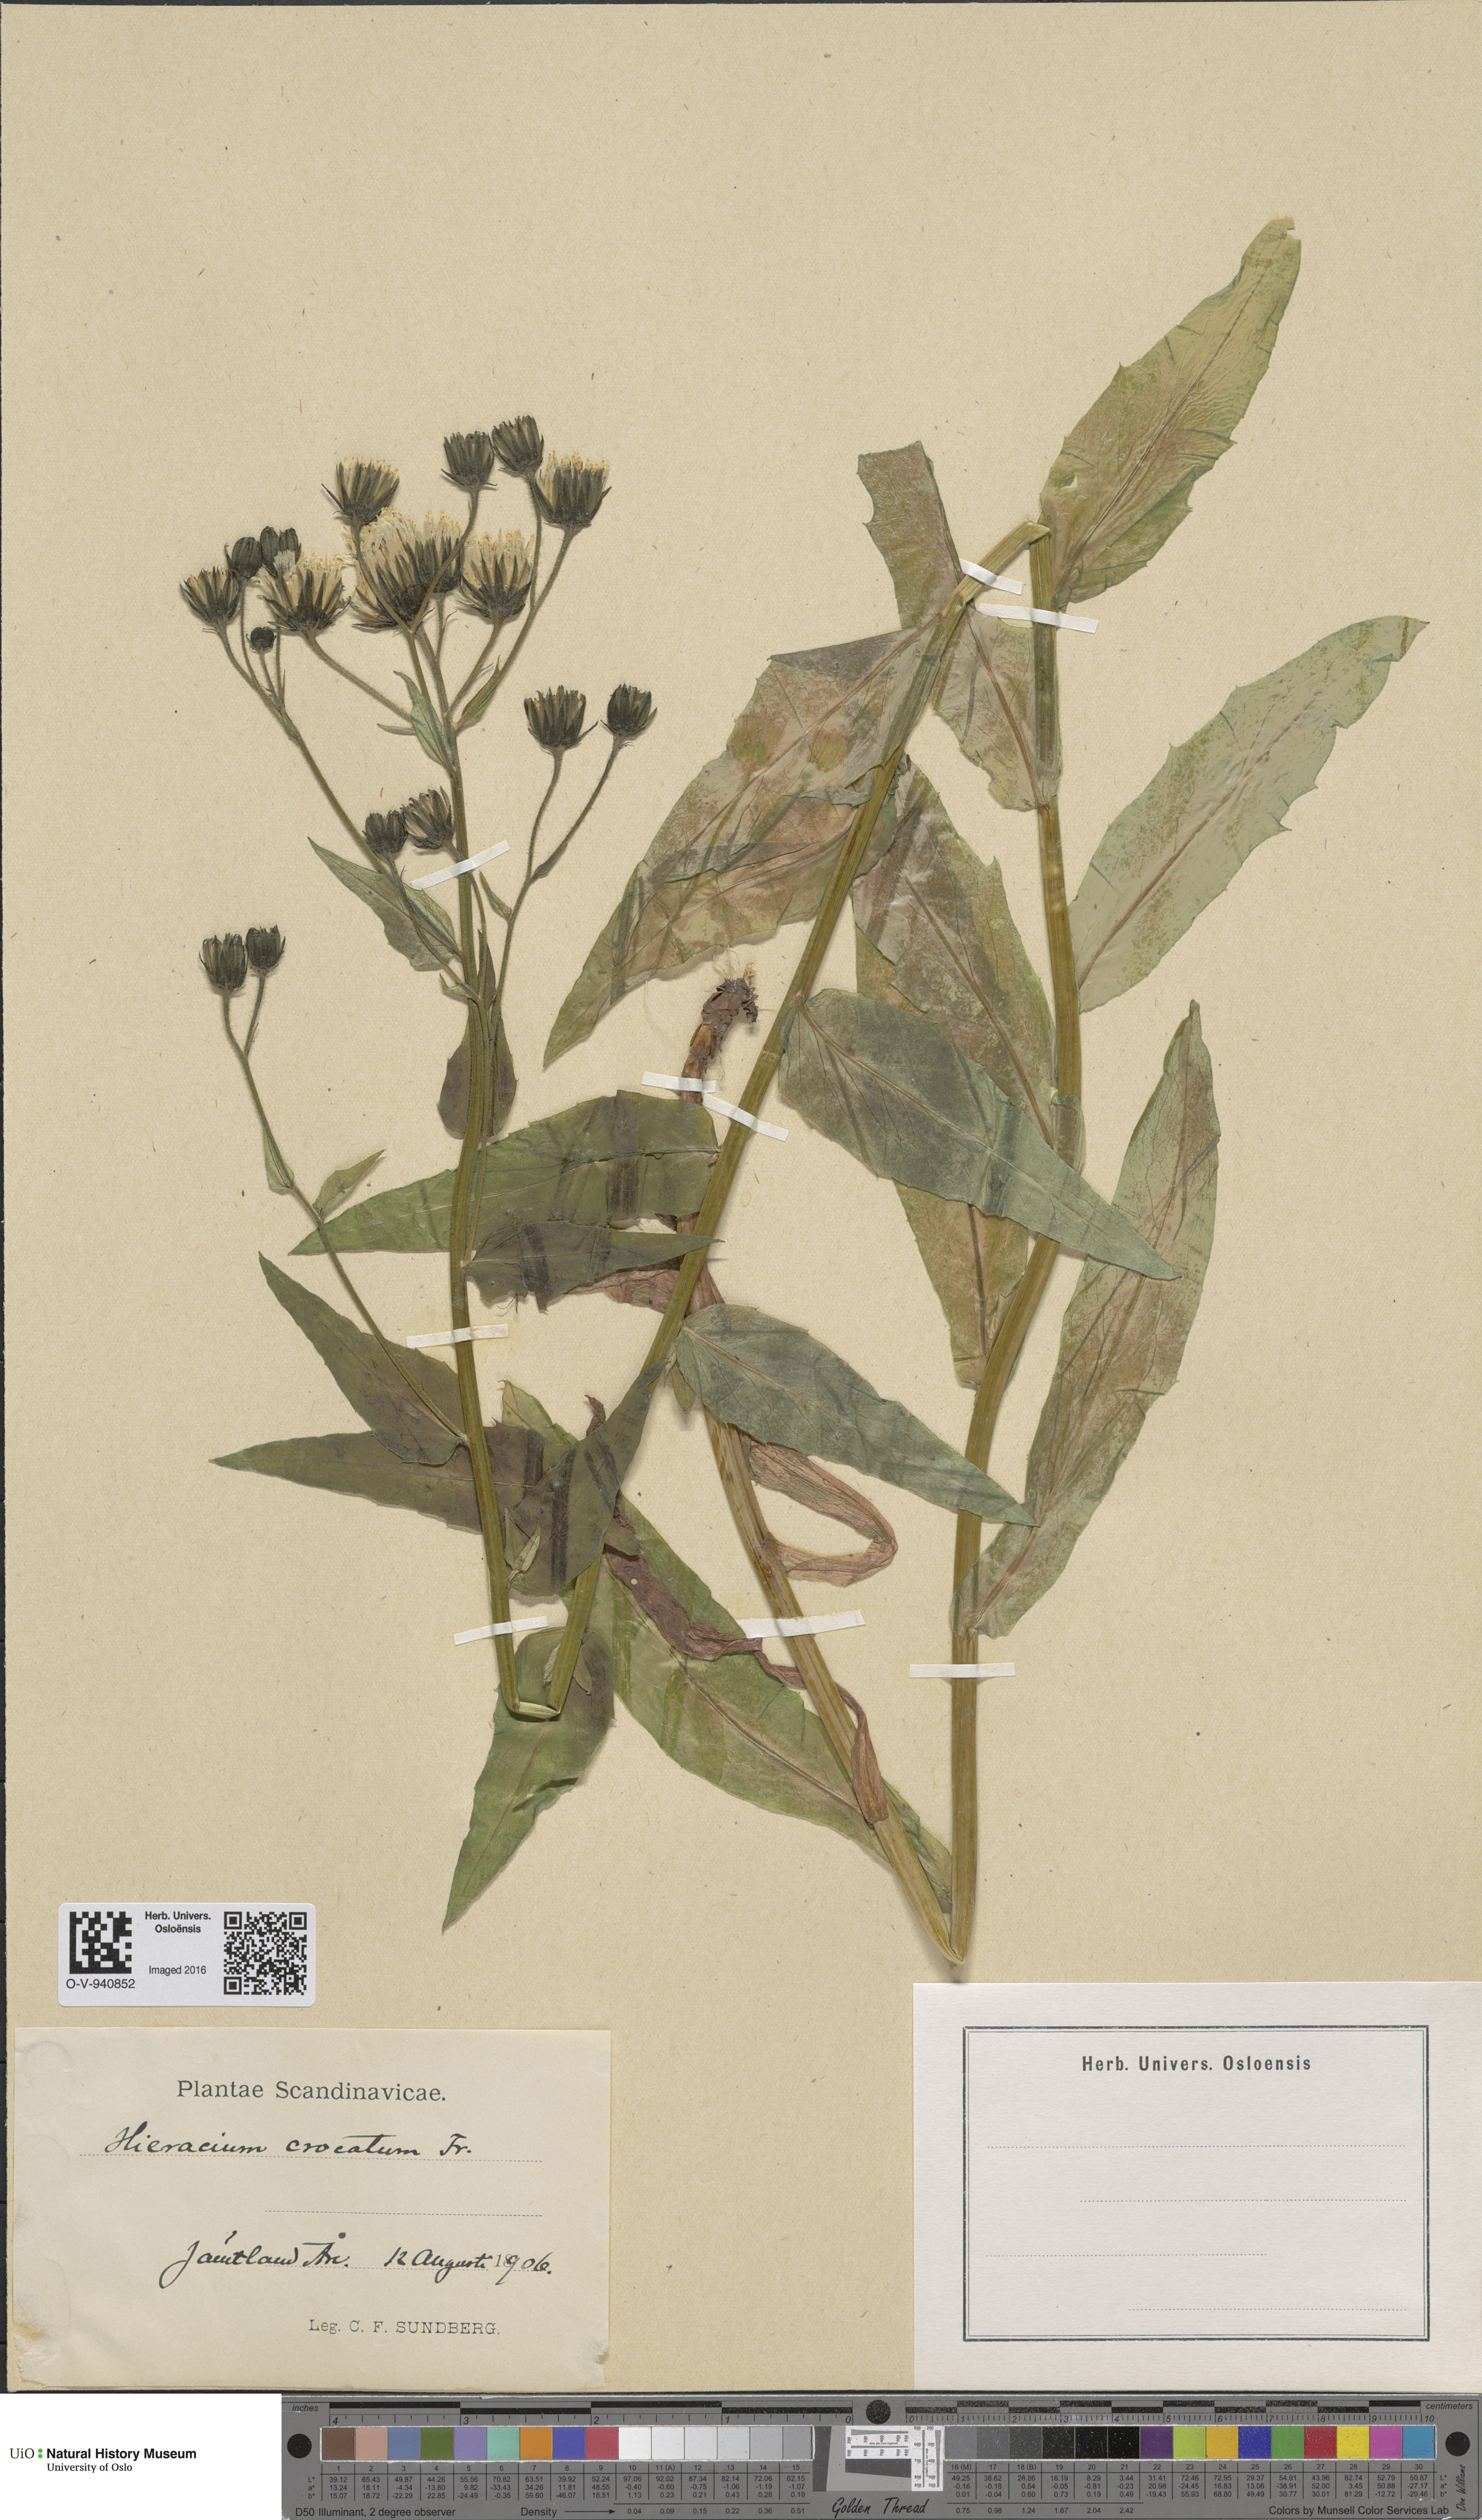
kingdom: Plantae
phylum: Tracheophyta
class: Magnoliopsida
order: Asterales
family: Asteraceae
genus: Hieracium
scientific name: Hieracium crocatum
